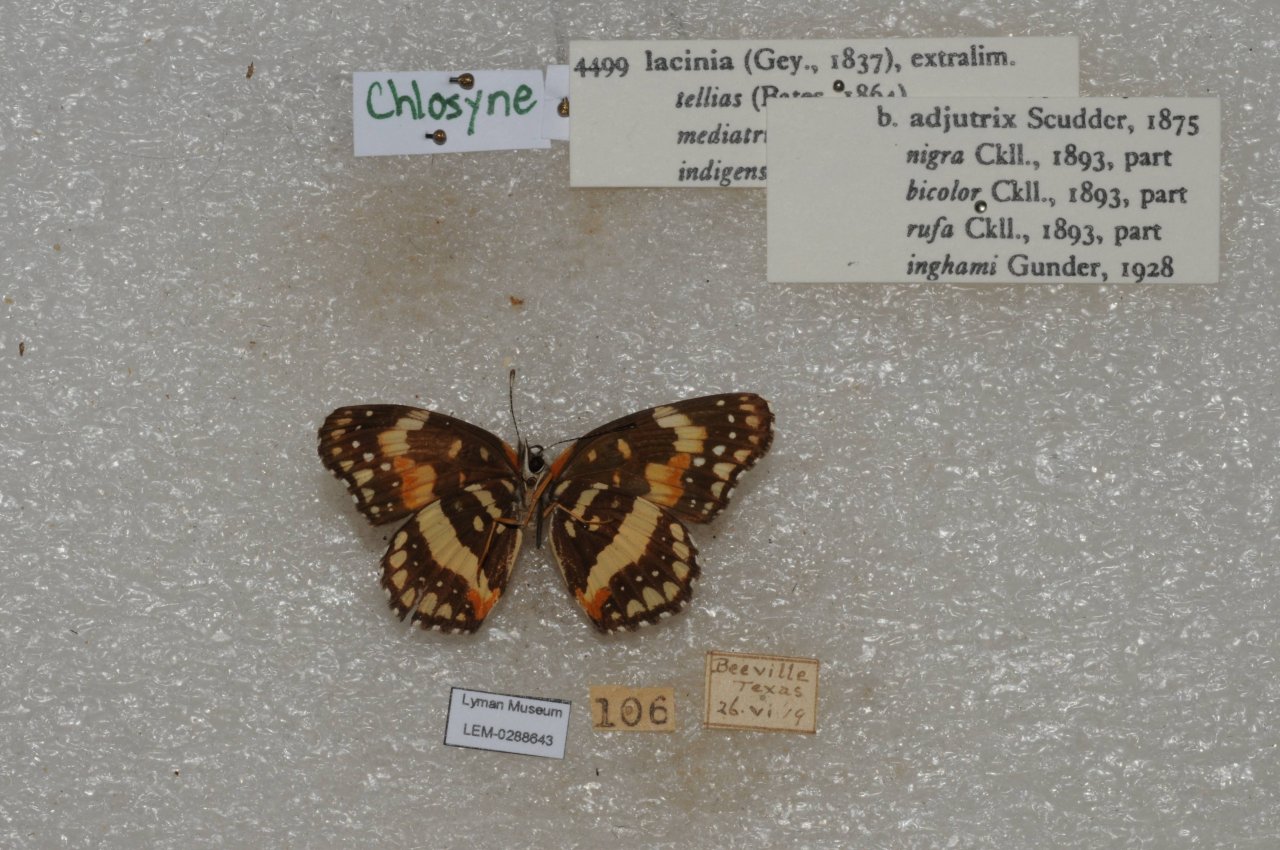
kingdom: Animalia
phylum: Arthropoda
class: Insecta
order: Lepidoptera
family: Nymphalidae
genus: Chlosyne
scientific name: Chlosyne lacinia
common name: Bordered Patch
